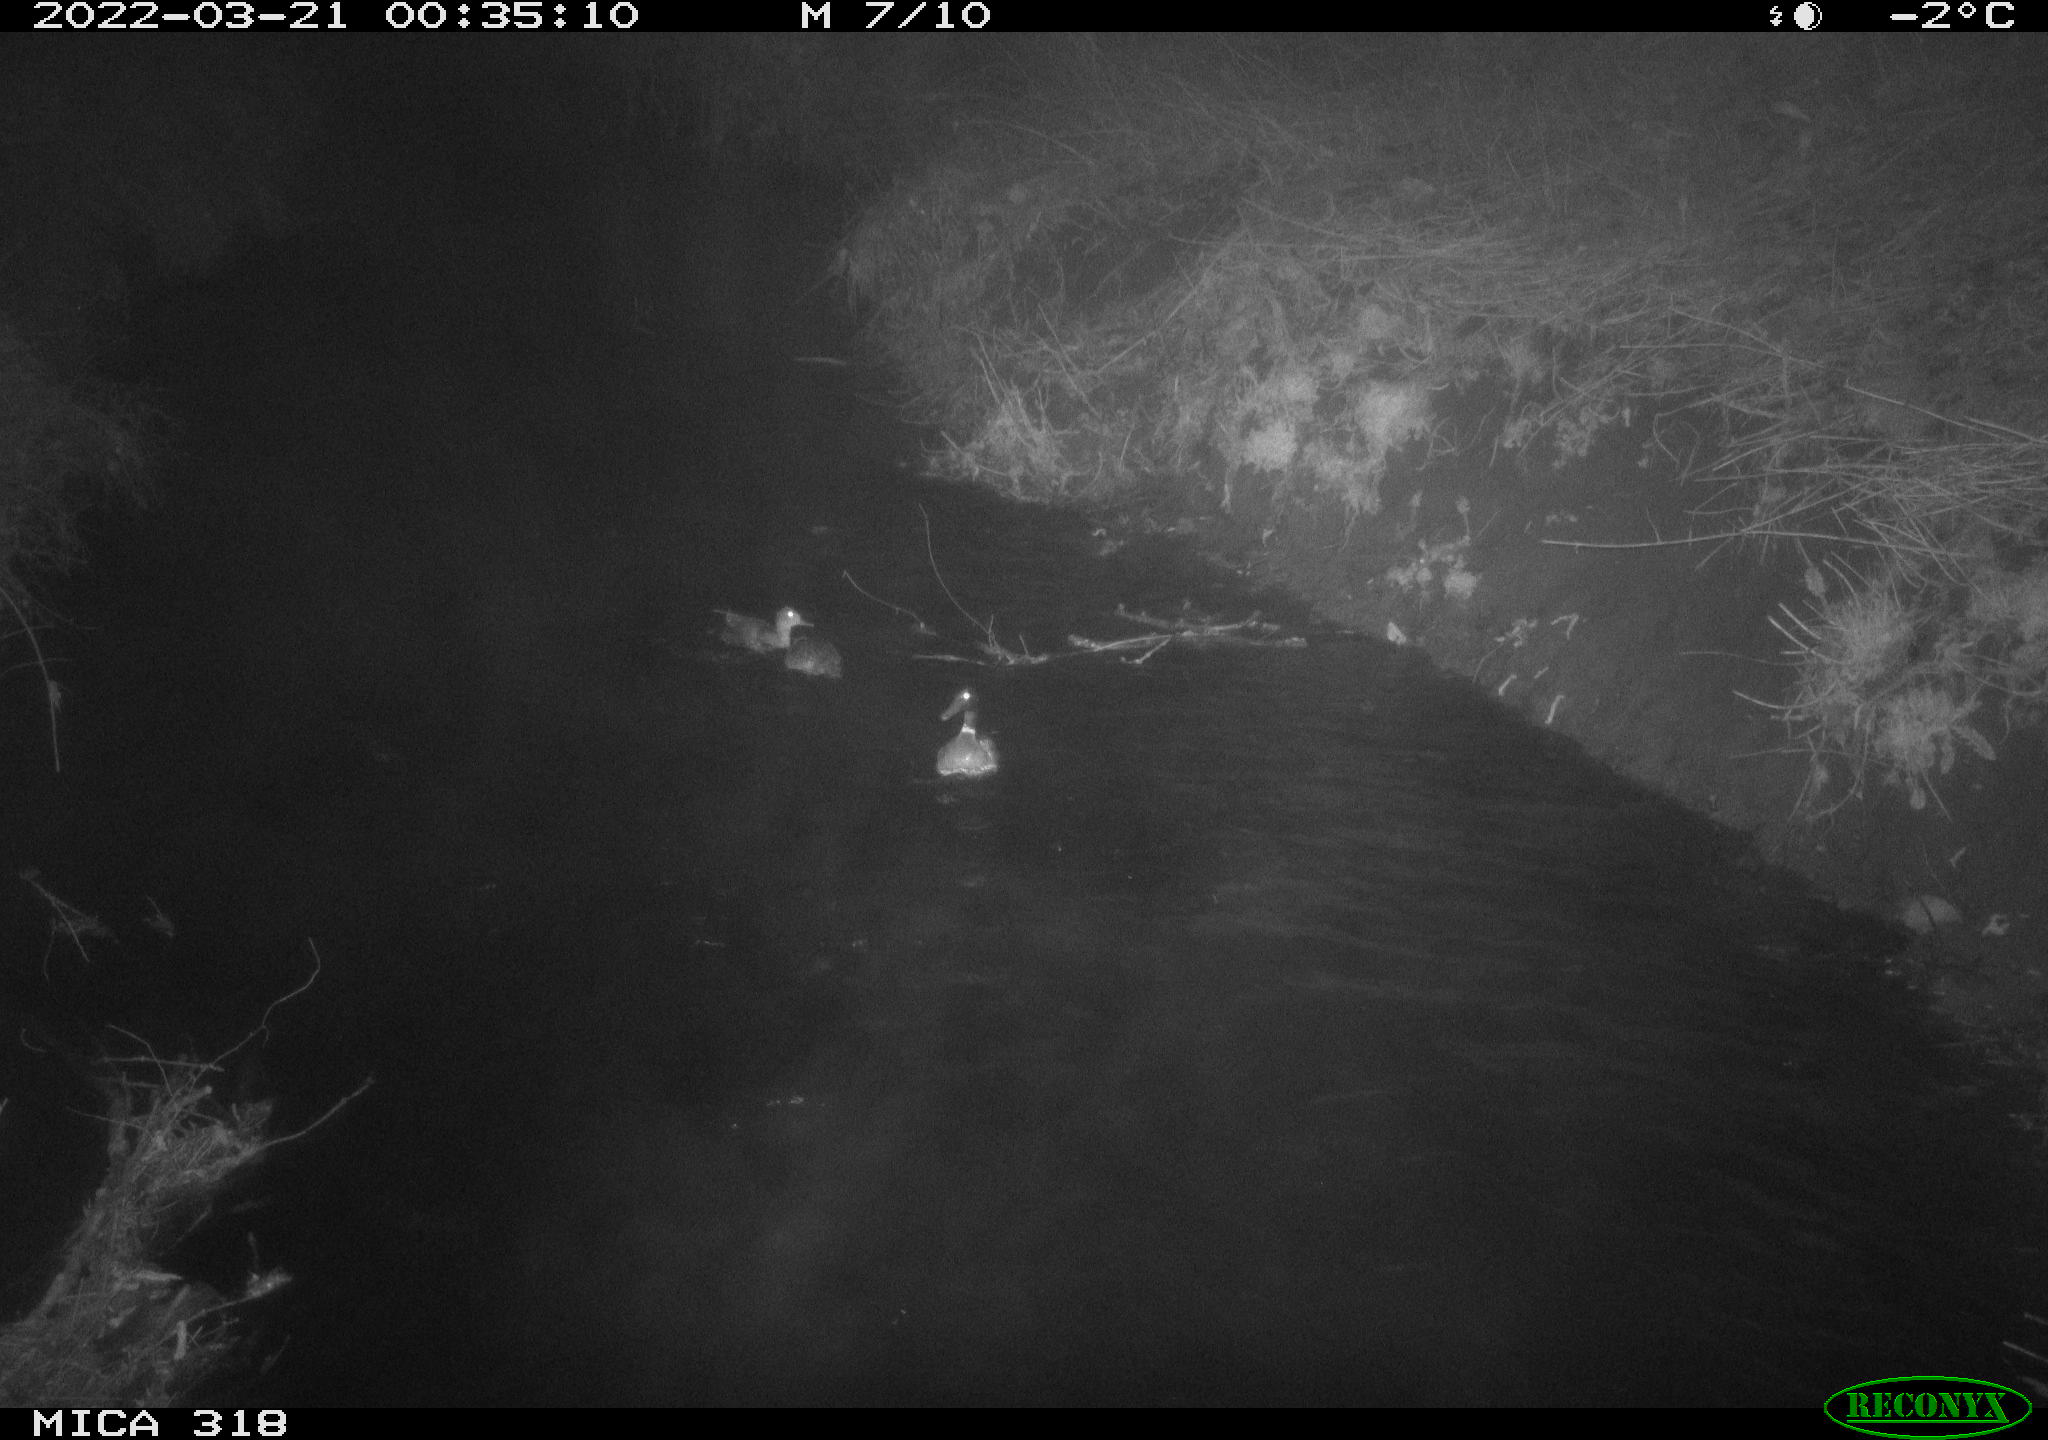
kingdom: Animalia
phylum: Chordata
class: Aves
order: Anseriformes
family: Anatidae
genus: Anas
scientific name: Anas platyrhynchos
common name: Mallard
